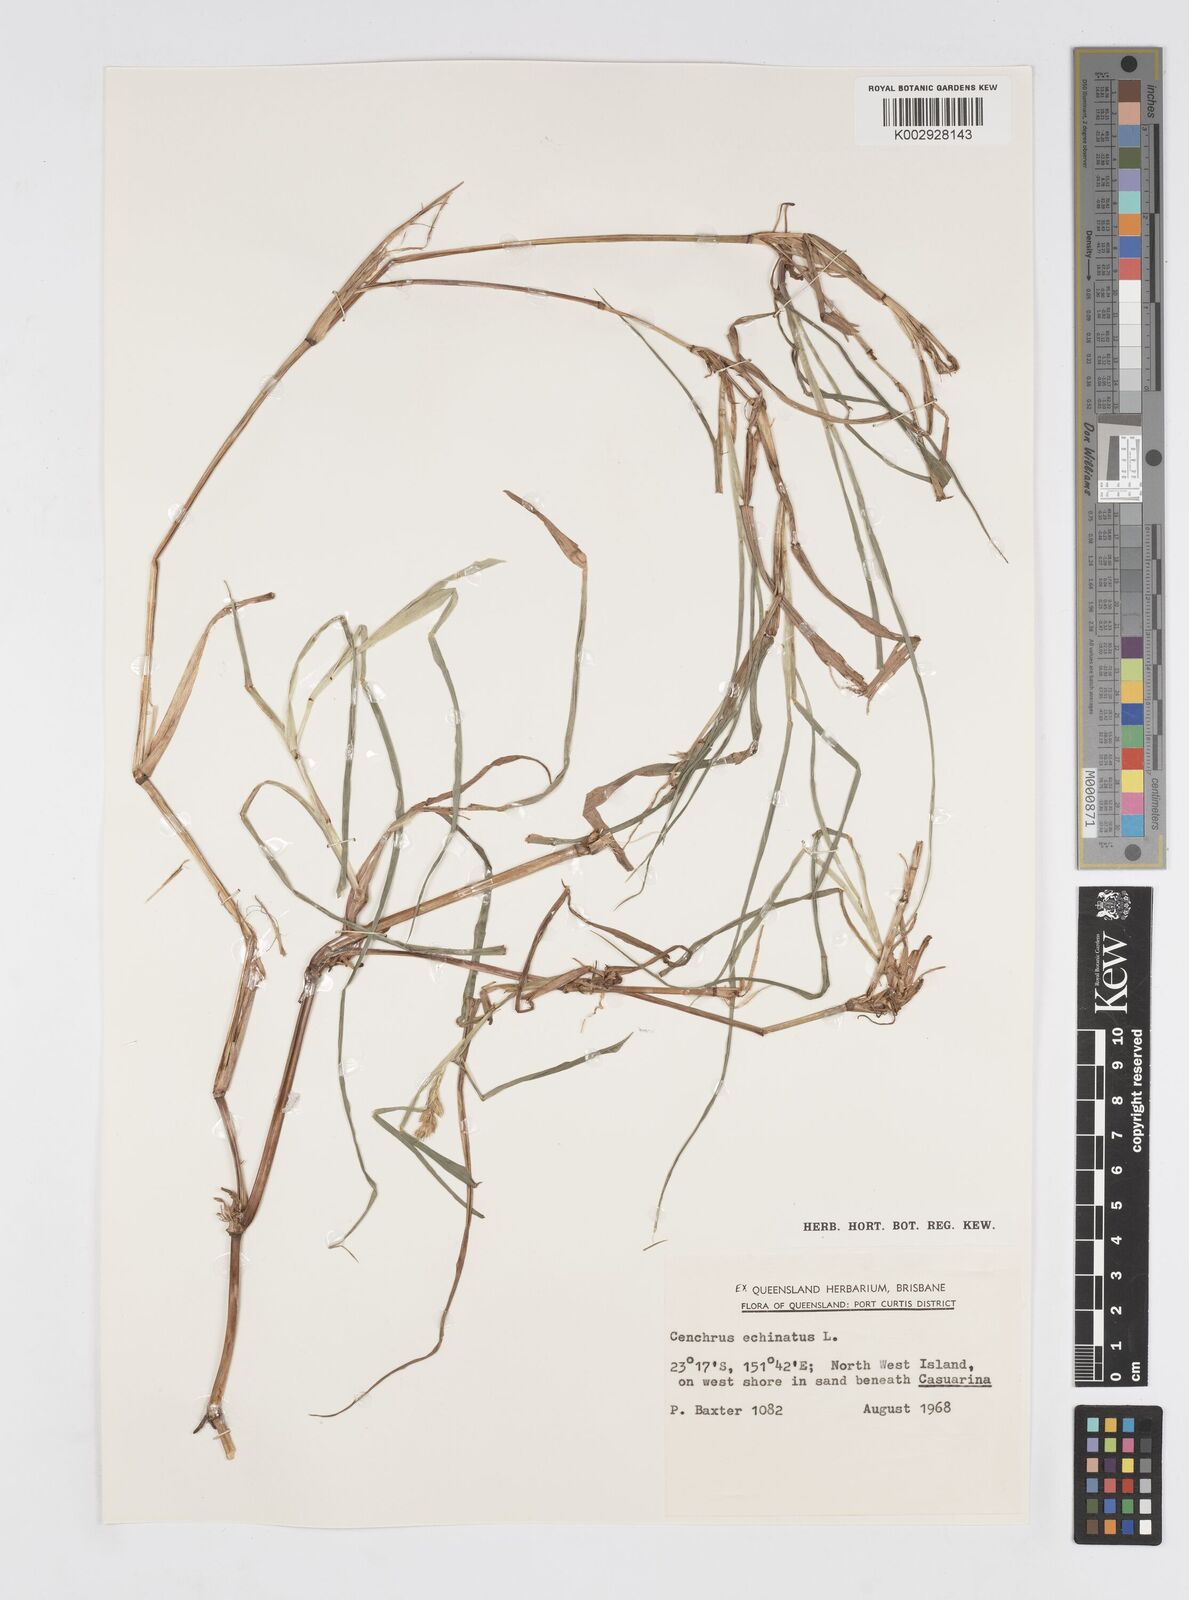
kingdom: Plantae
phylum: Tracheophyta
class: Liliopsida
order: Poales
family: Poaceae
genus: Cenchrus
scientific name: Cenchrus echinatus
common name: Southern sandbur
